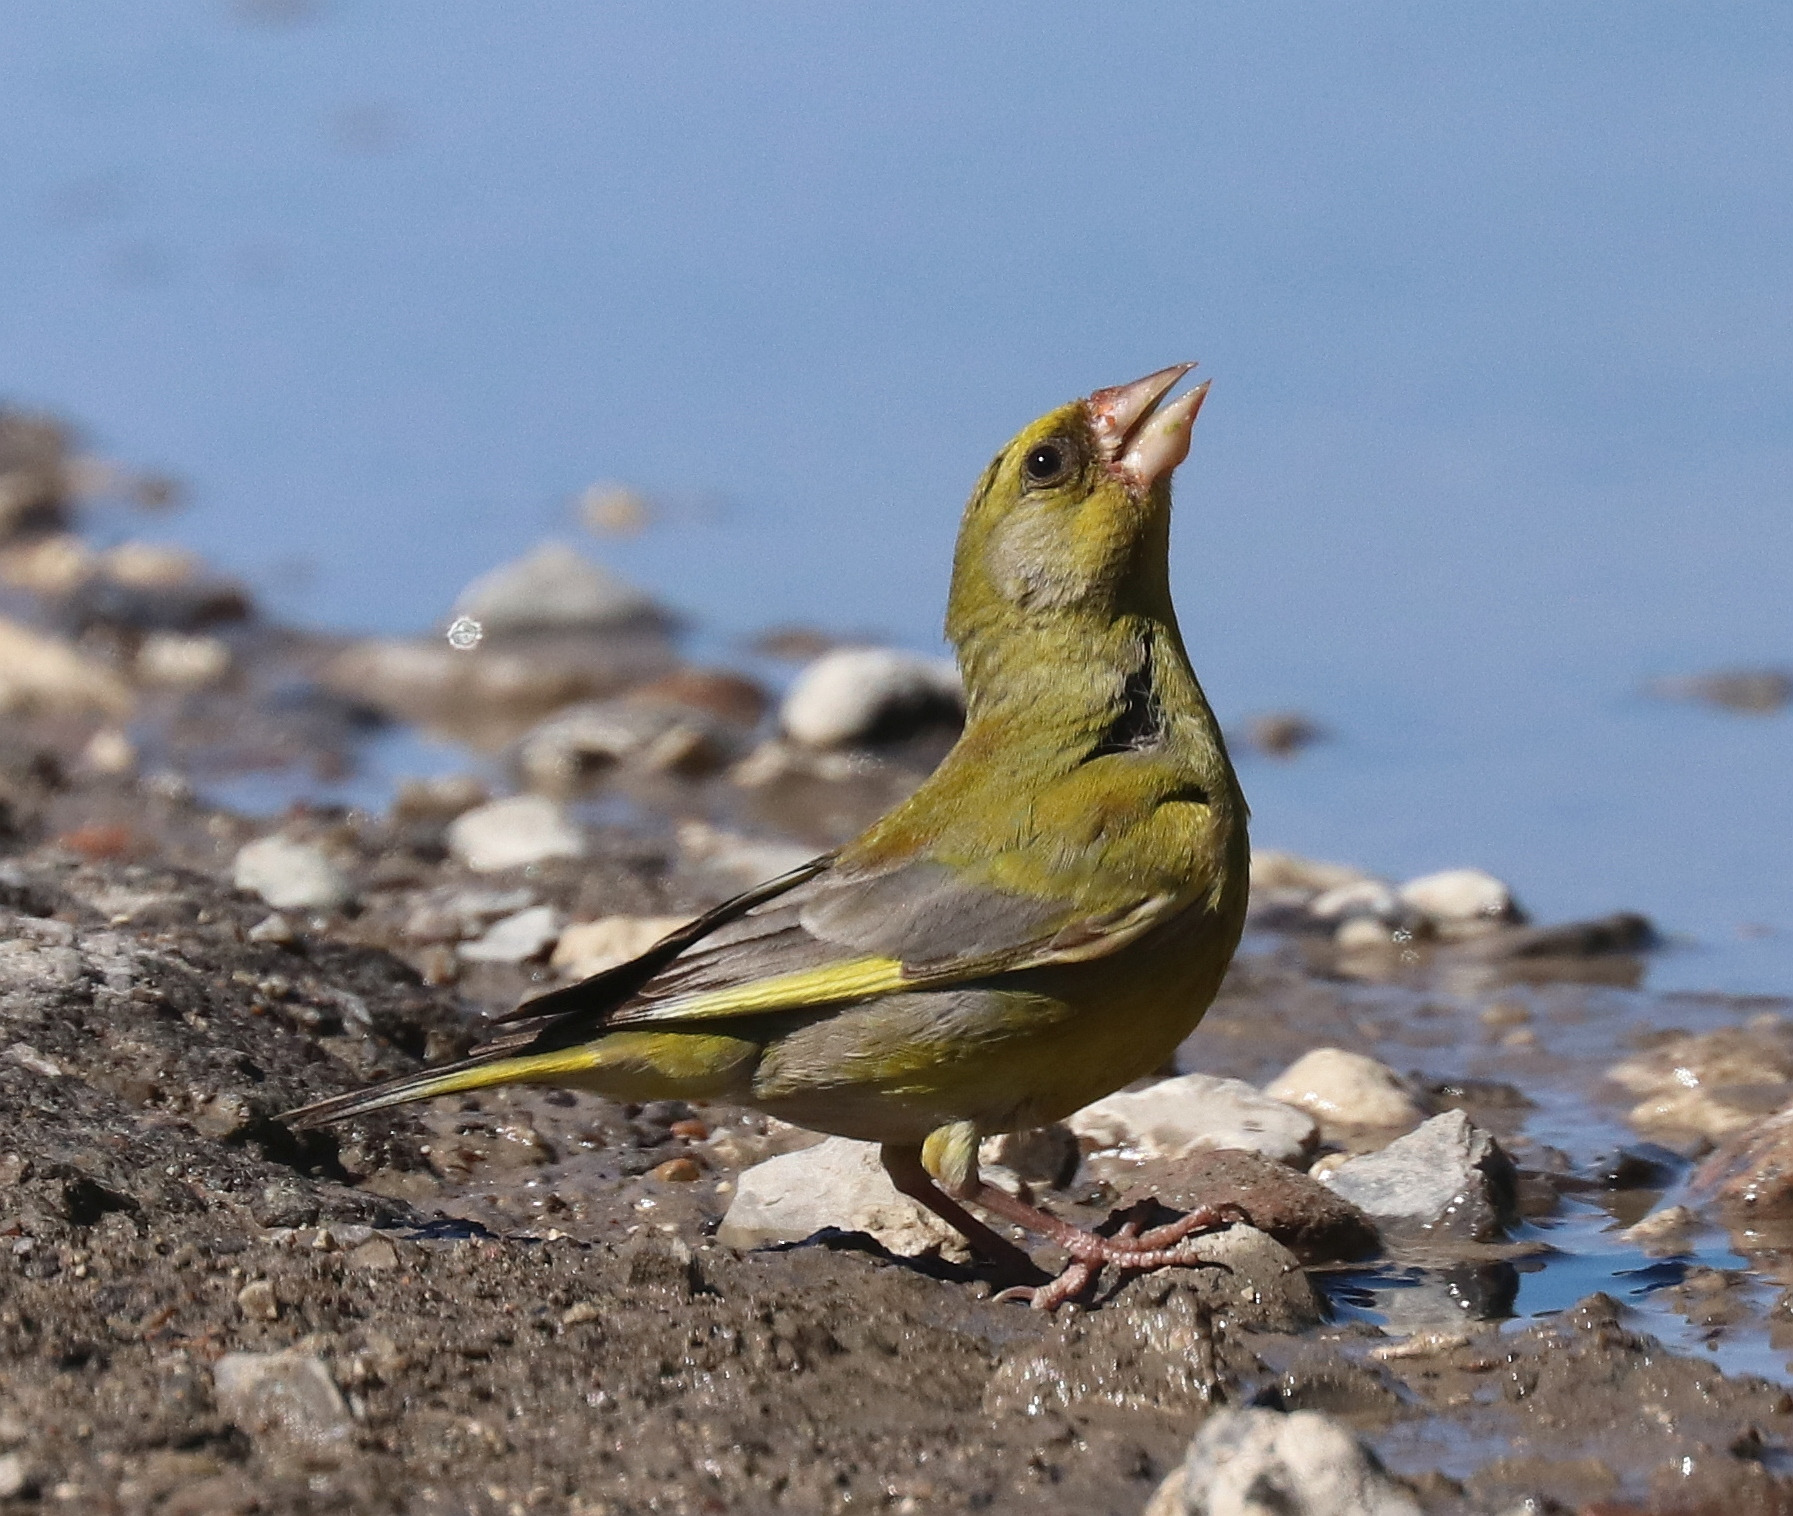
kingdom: Plantae
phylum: Tracheophyta
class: Liliopsida
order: Poales
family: Poaceae
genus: Chloris
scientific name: Chloris chloris
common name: Grønirisk
